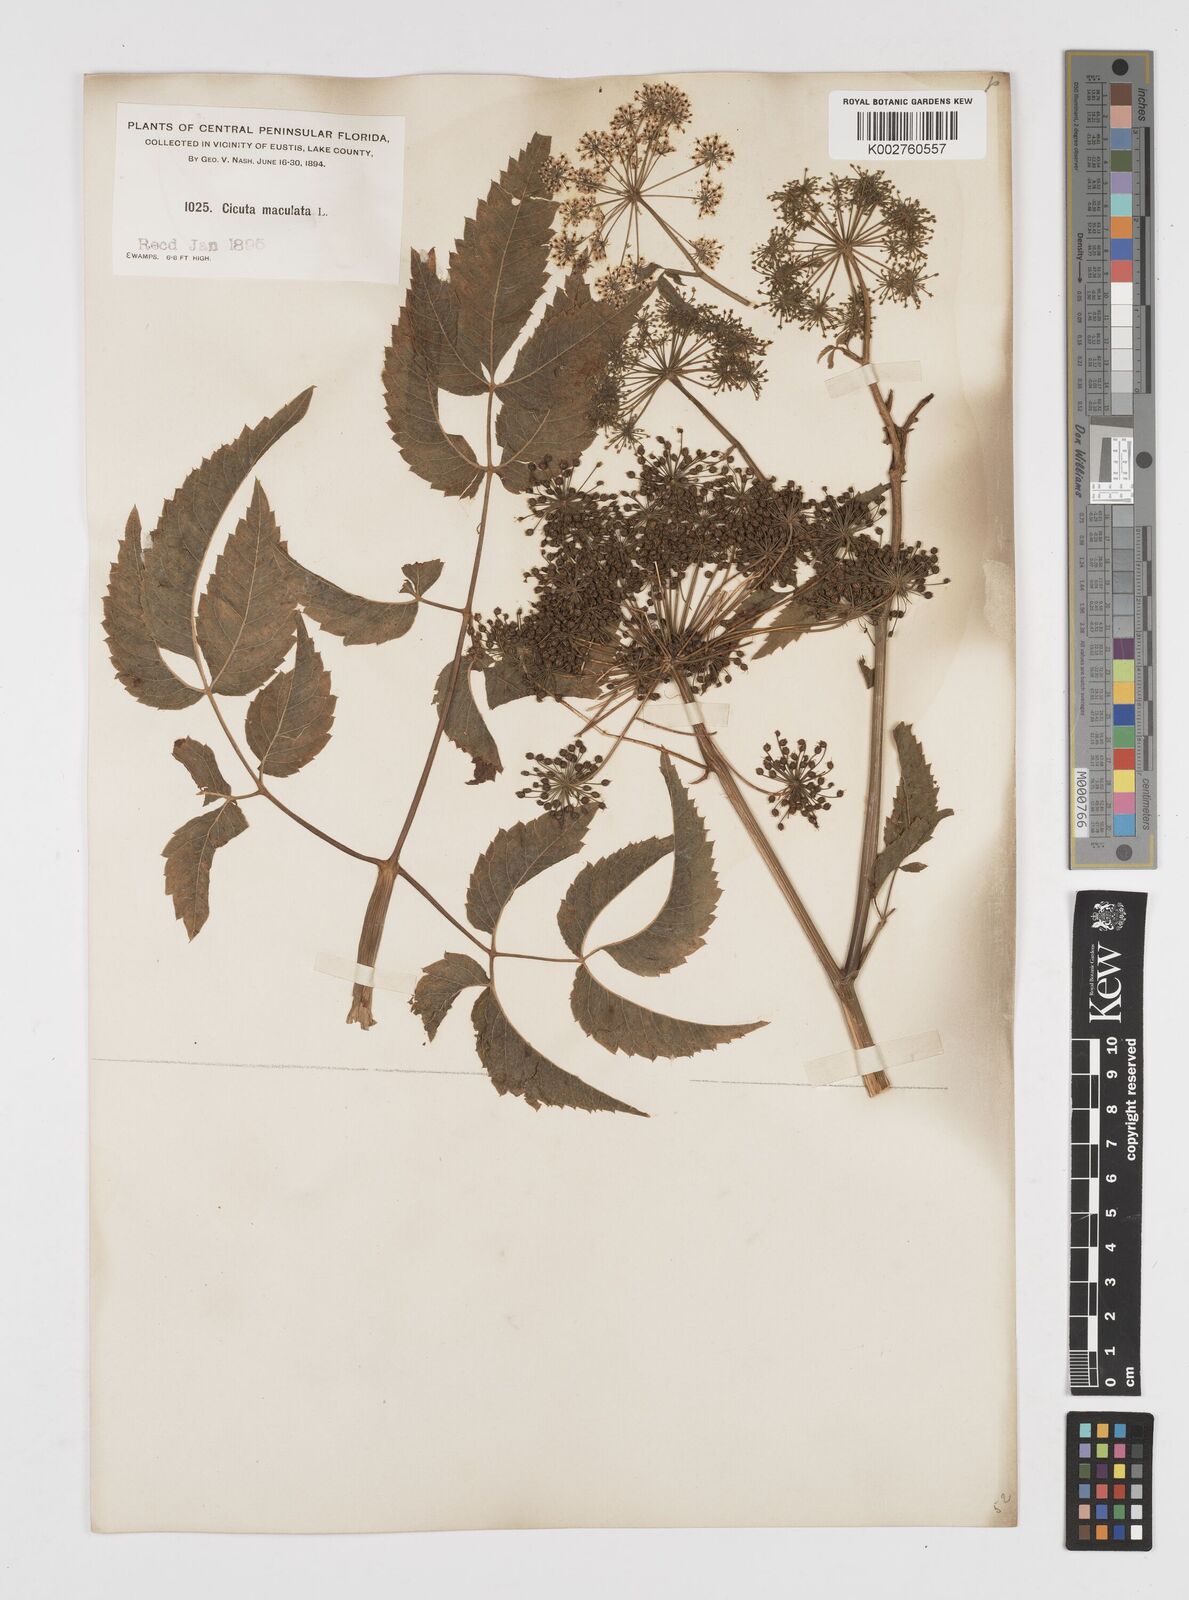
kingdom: Plantae
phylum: Tracheophyta
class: Magnoliopsida
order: Apiales
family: Apiaceae
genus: Cicuta
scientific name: Cicuta douglasii
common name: Western water-hemlock
